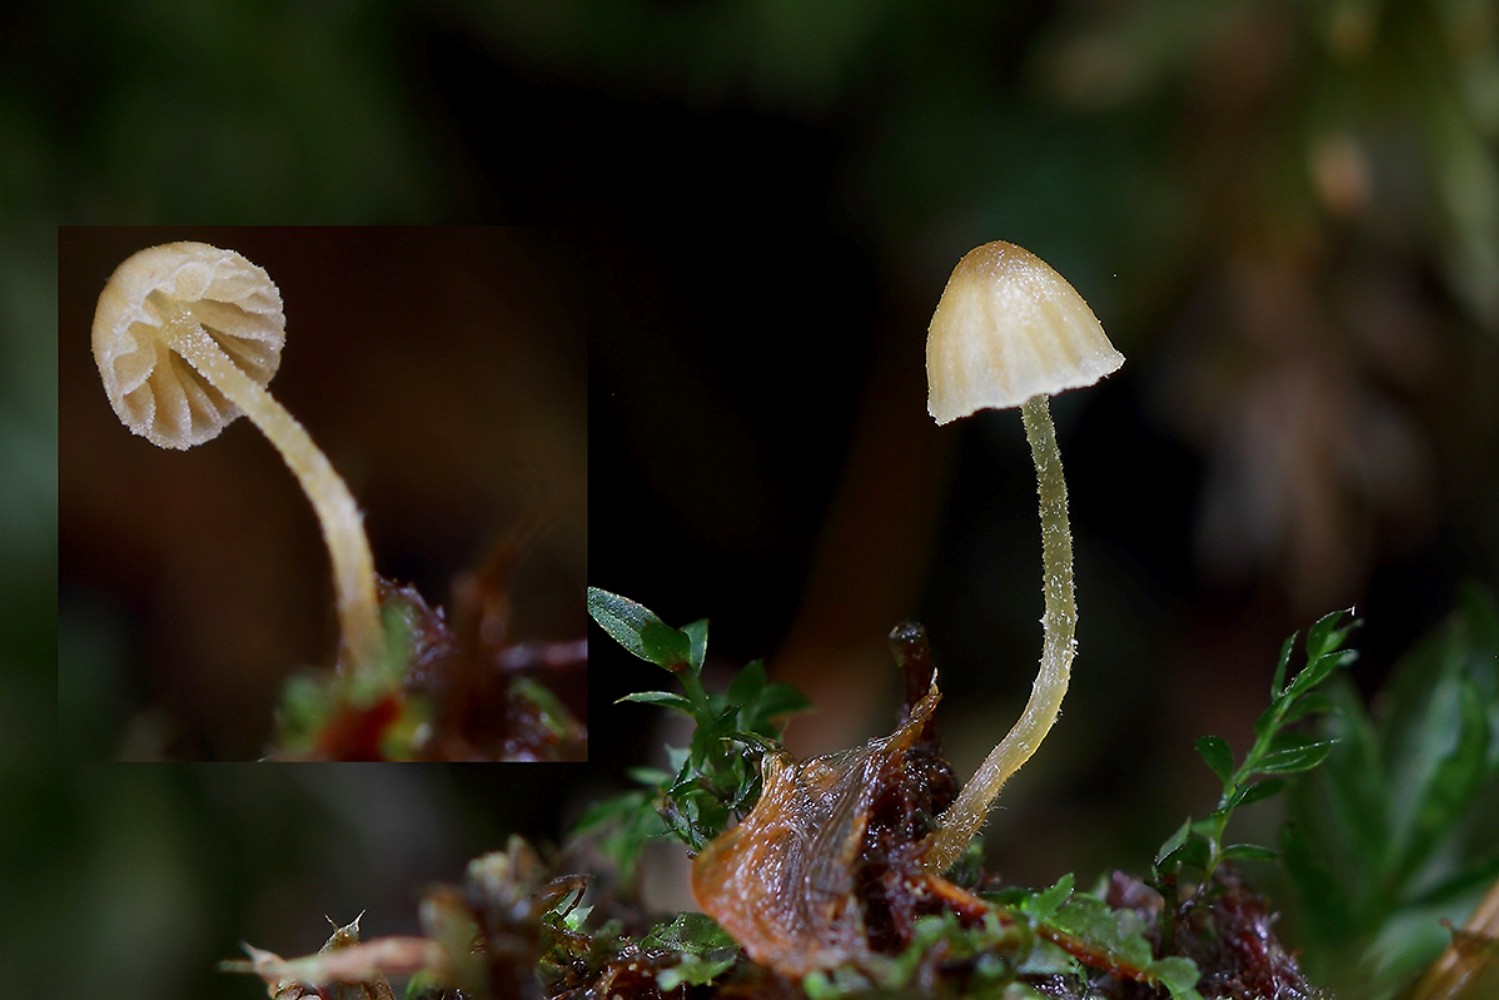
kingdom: Fungi
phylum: Basidiomycota
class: Agaricomycetes
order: Agaricales
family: Hymenogastraceae
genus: Galerina
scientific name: Galerina hypnorum
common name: mos-hjelmhat
